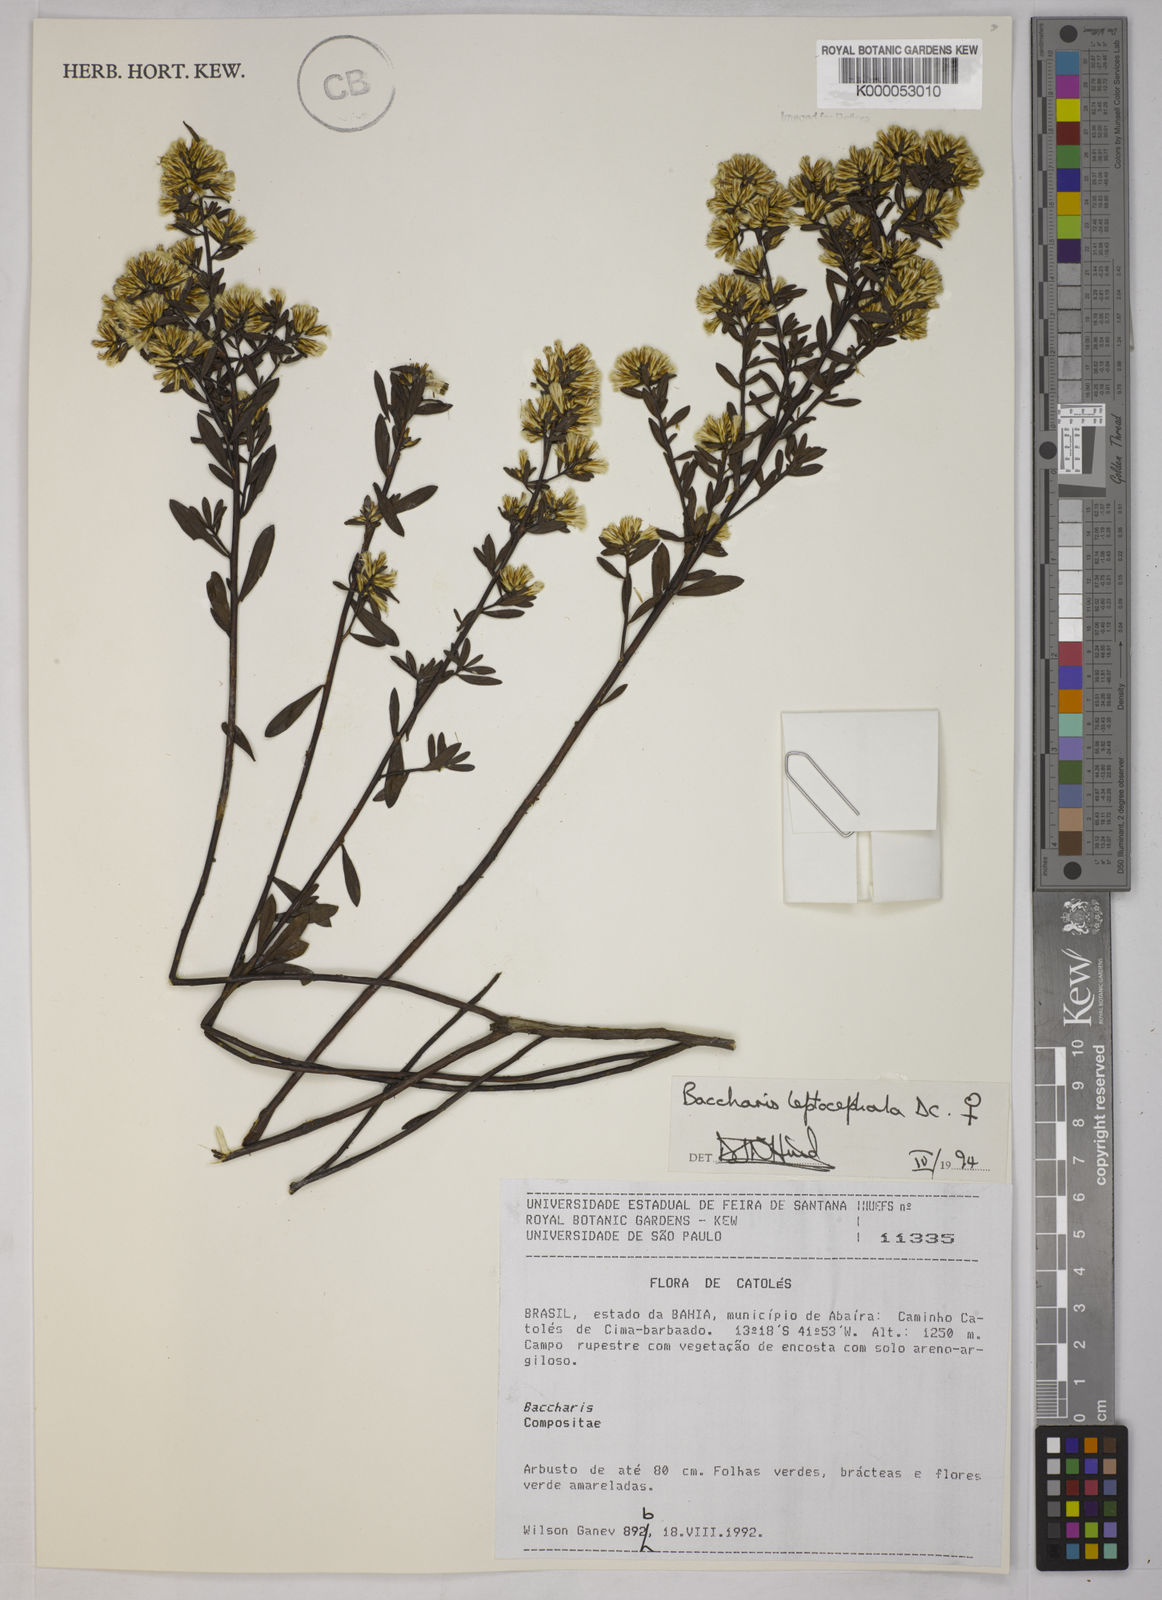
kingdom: Plantae
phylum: Tracheophyta
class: Magnoliopsida
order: Asterales
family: Asteraceae
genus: Baccharis
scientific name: Baccharis leptocephala
